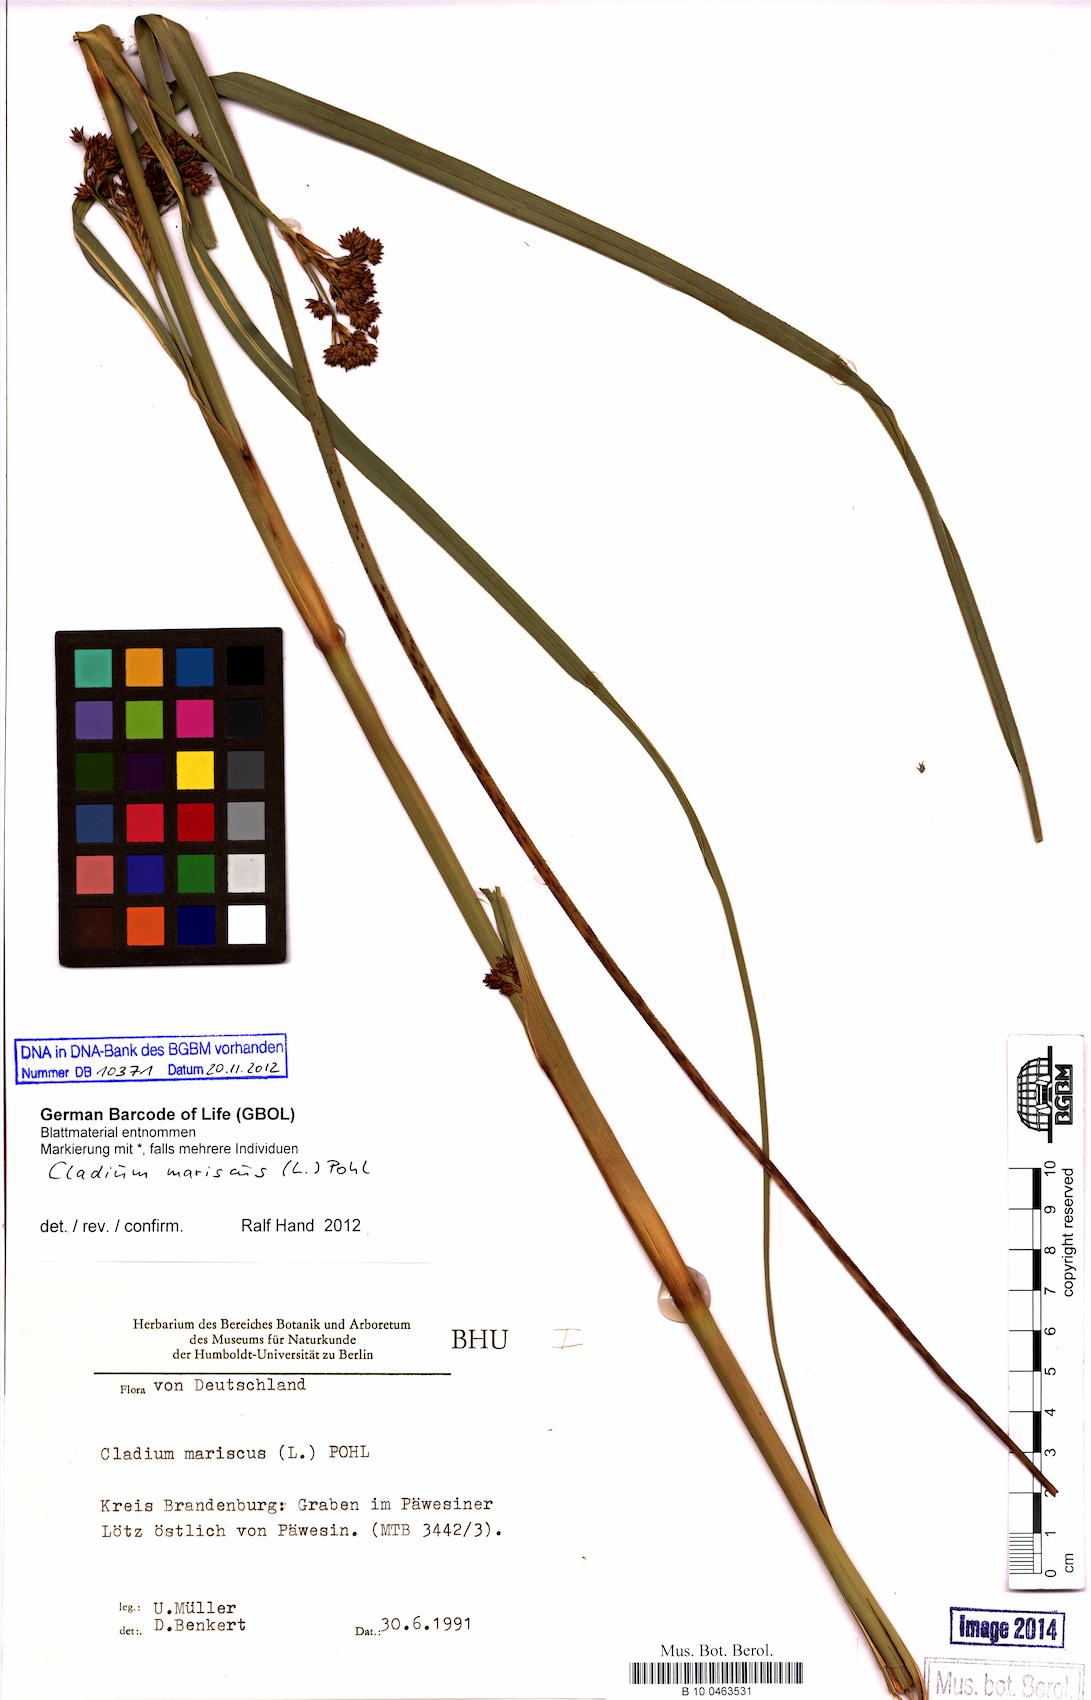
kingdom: Plantae
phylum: Tracheophyta
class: Liliopsida
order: Poales
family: Cyperaceae
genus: Cladium
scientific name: Cladium mariscus
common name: Great fen-sedge
